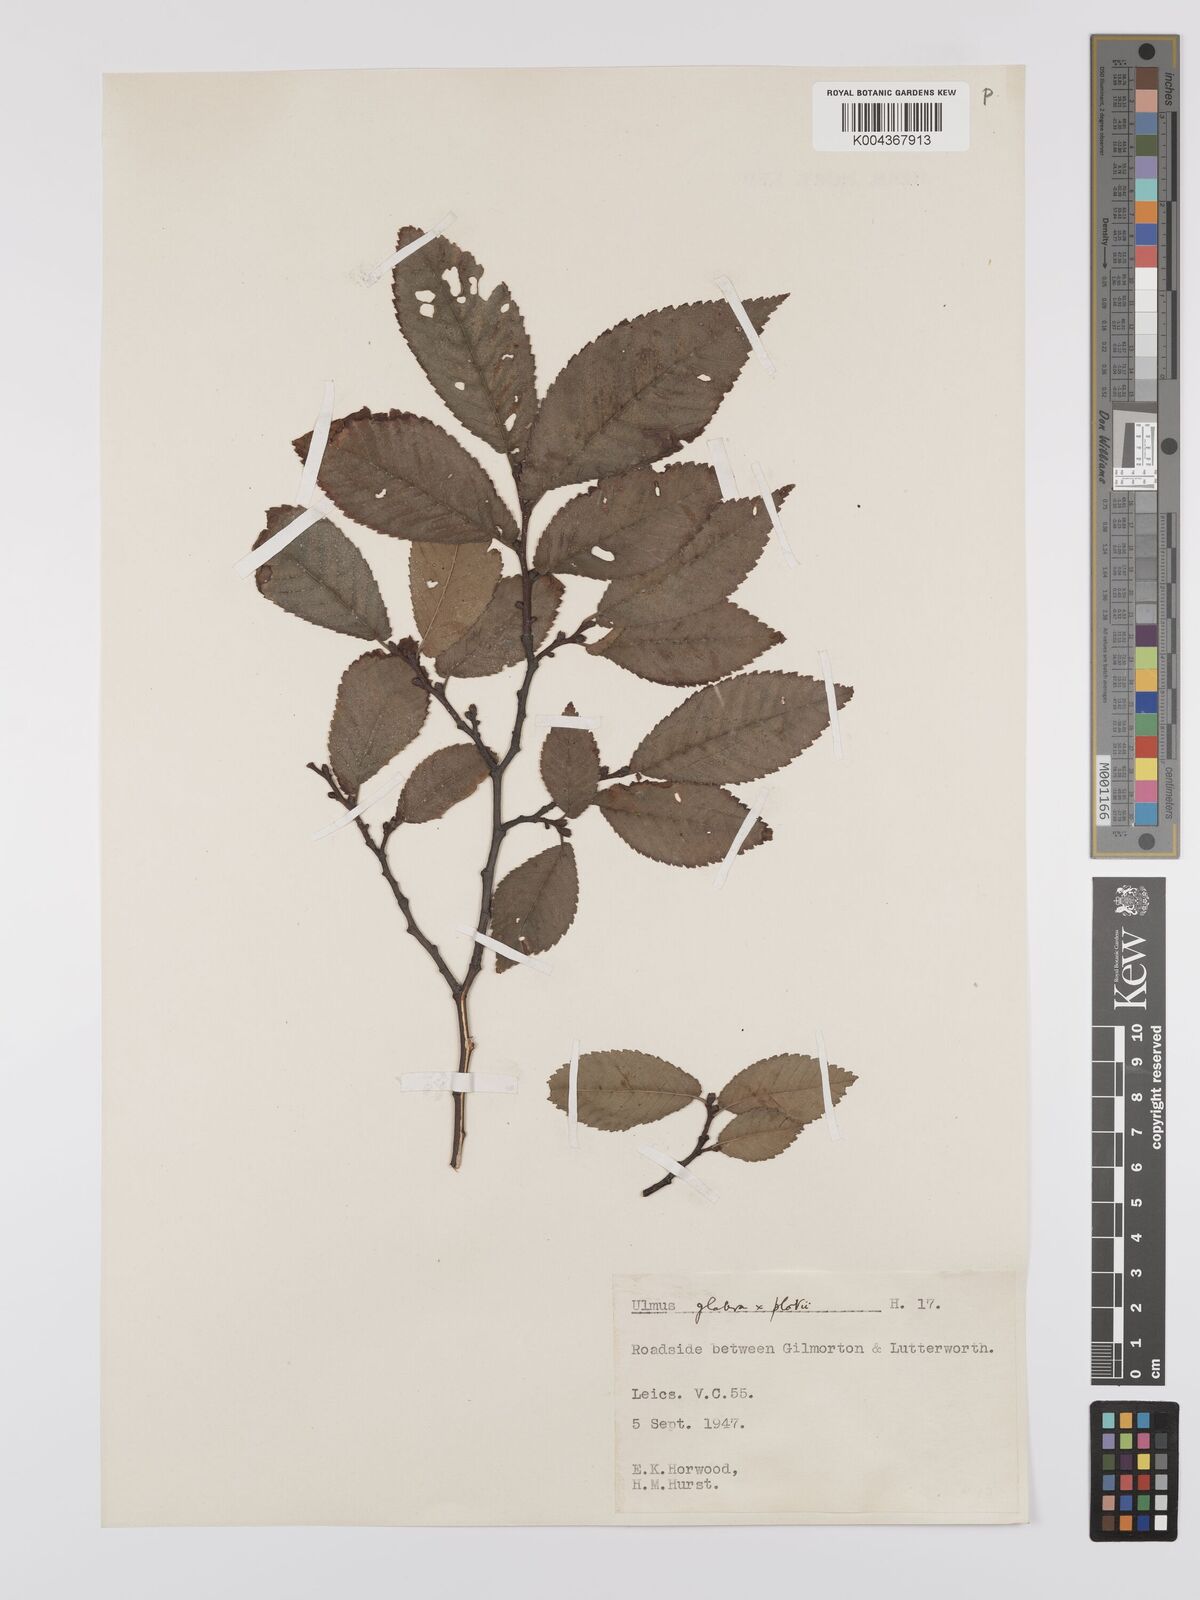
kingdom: Plantae
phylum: Tracheophyta
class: Magnoliopsida
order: Rosales
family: Ulmaceae
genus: Ulmus
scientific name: Ulmus
